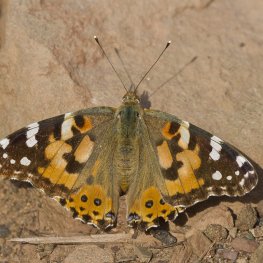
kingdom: Animalia
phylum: Arthropoda
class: Insecta
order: Lepidoptera
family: Nymphalidae
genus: Vanessa
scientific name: Vanessa cardui
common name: Painted Lady
